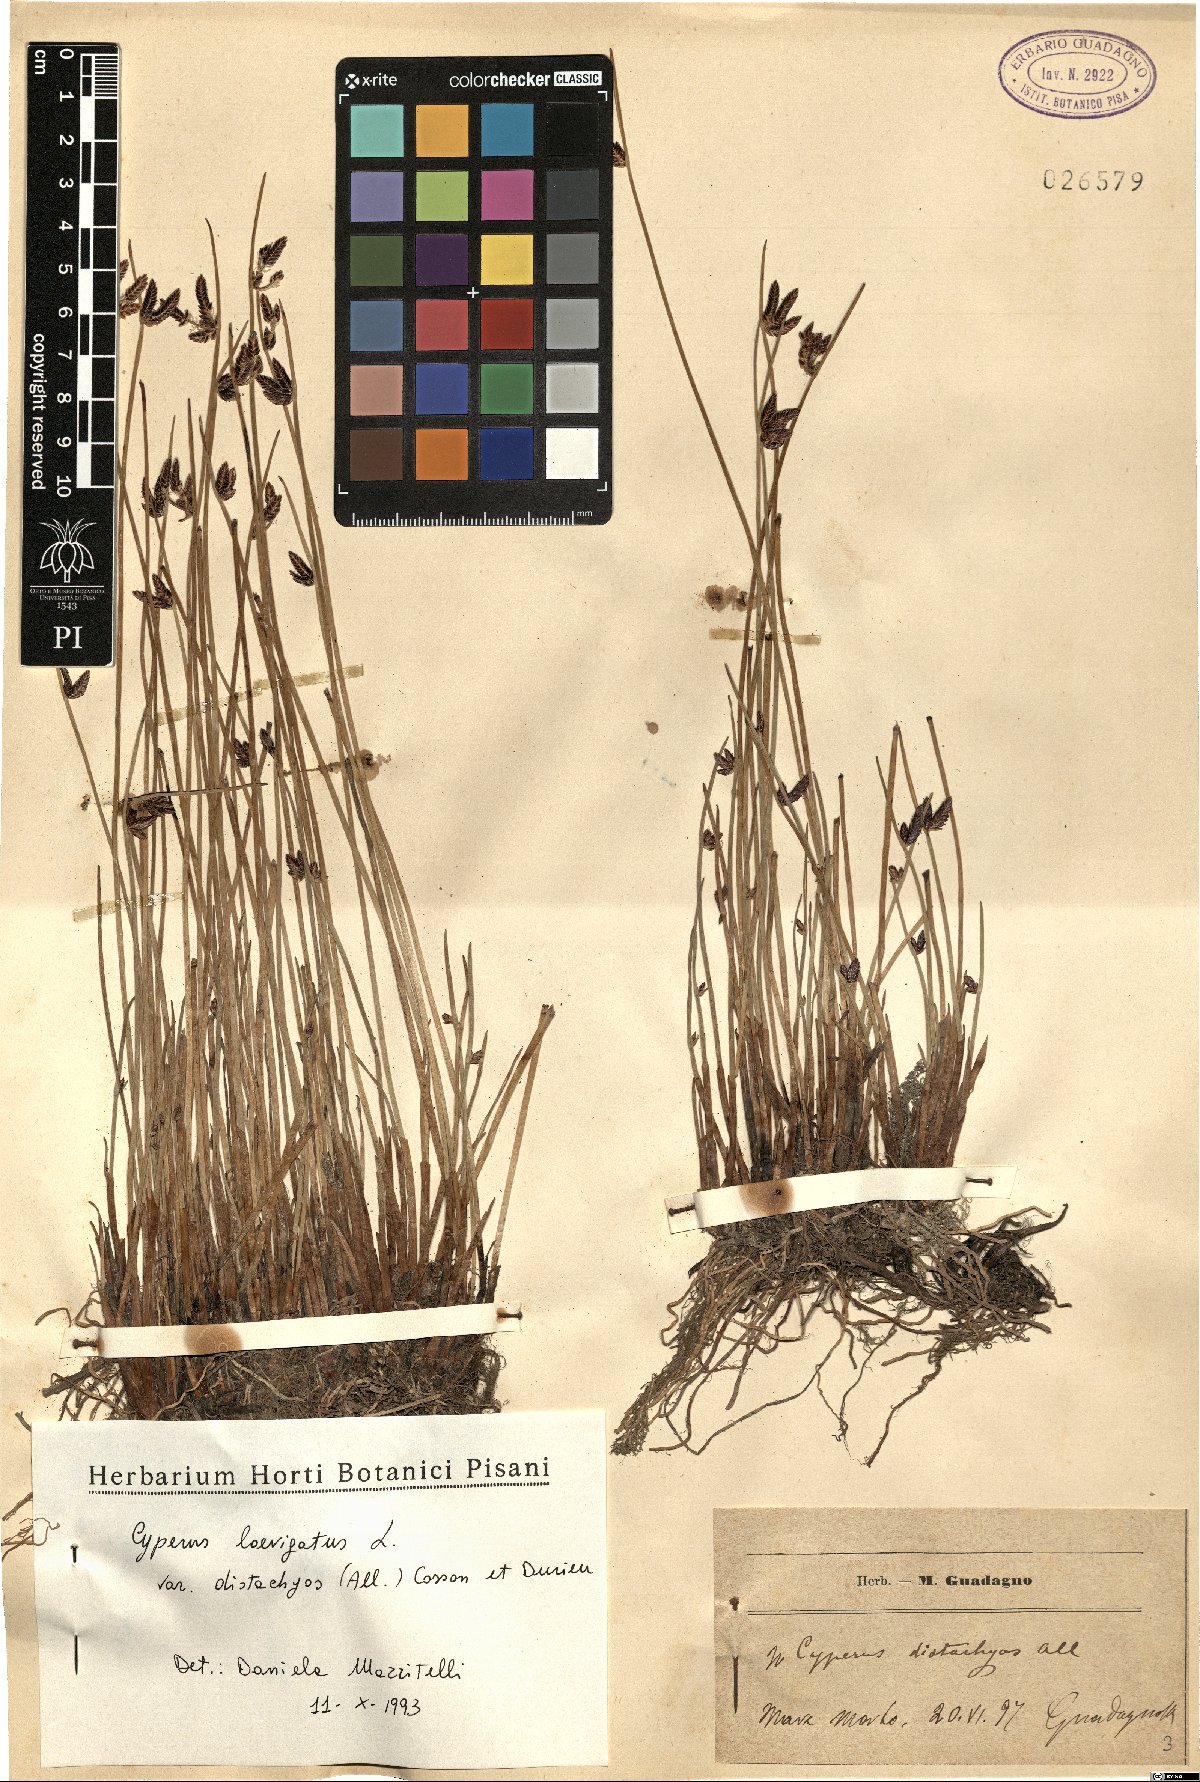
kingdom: Plantae
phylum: Tracheophyta
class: Liliopsida
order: Poales
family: Cyperaceae
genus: Cyperus
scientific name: Cyperus laevigatus
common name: Smooth flat sedge
